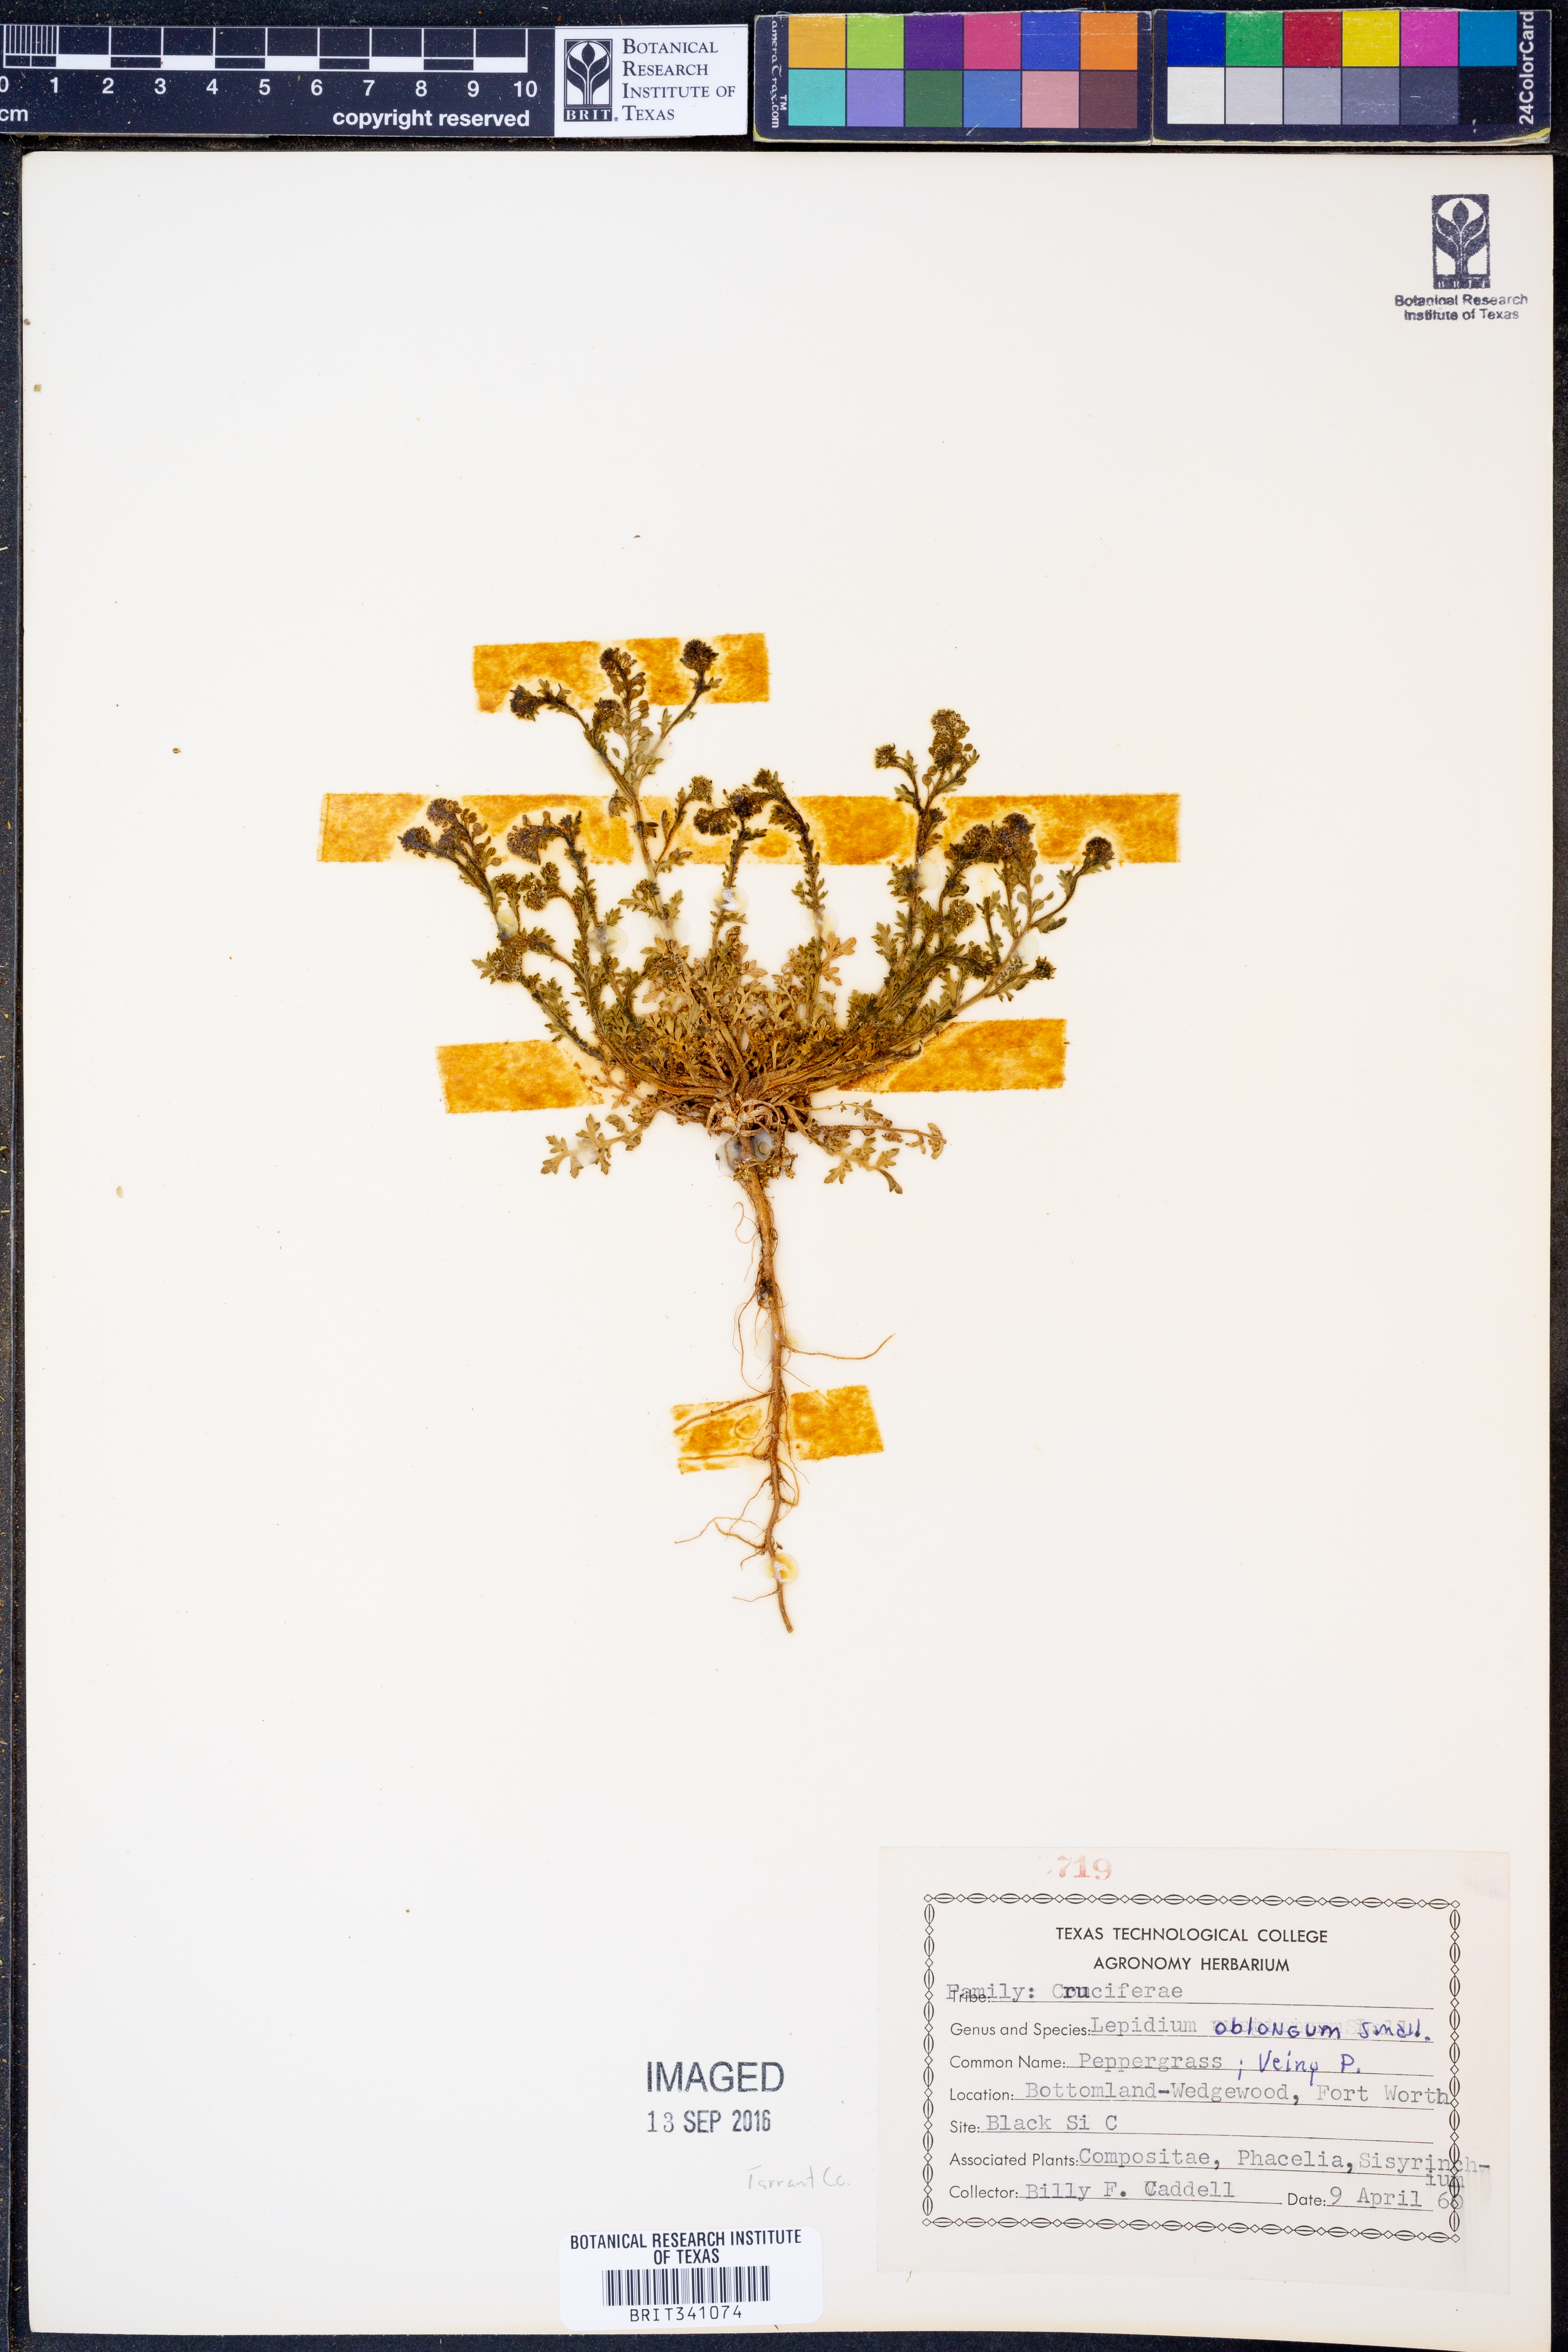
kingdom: Plantae
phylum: Tracheophyta
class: Magnoliopsida
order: Brassicales
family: Brassicaceae
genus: Lepidium
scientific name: Lepidium oblongum
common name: Veiny pepperweed
